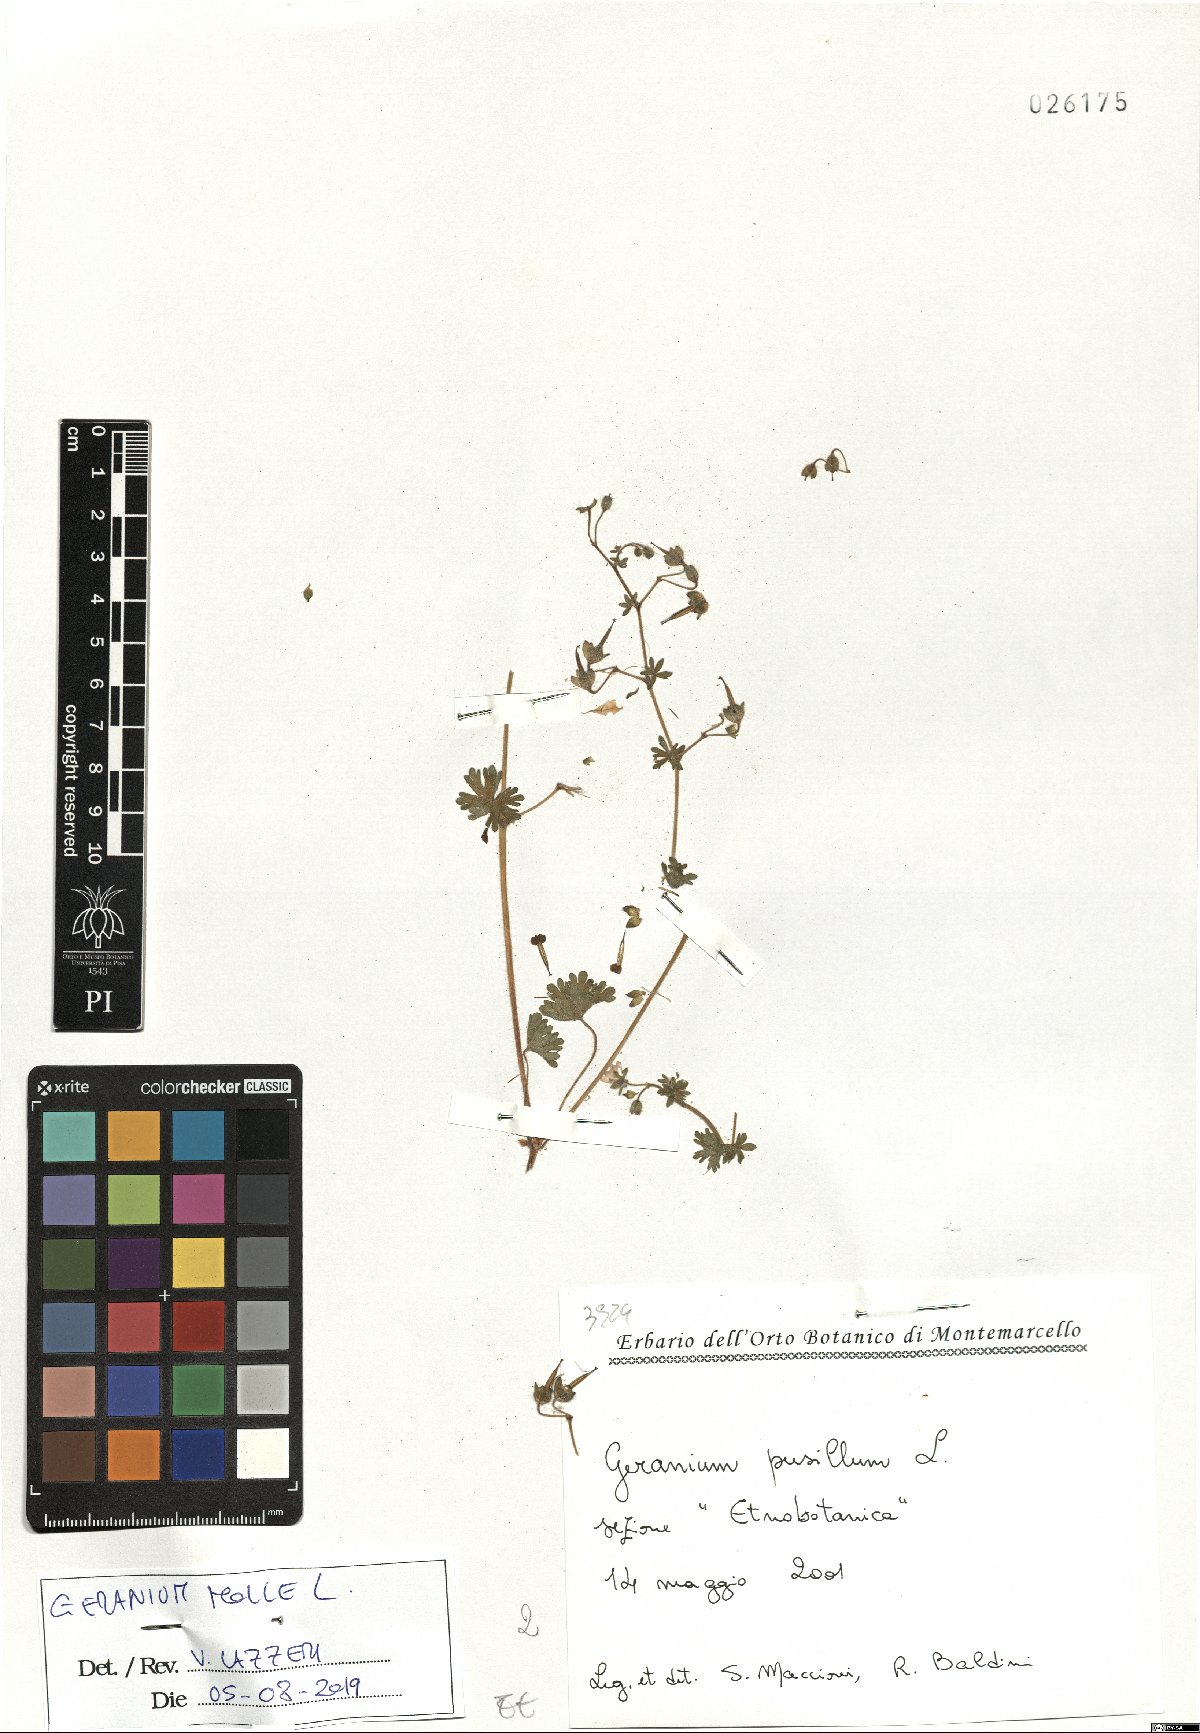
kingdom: Plantae
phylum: Tracheophyta
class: Magnoliopsida
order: Geraniales
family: Geraniaceae
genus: Geranium
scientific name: Geranium molle
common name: Dove's-foot crane's-bill
